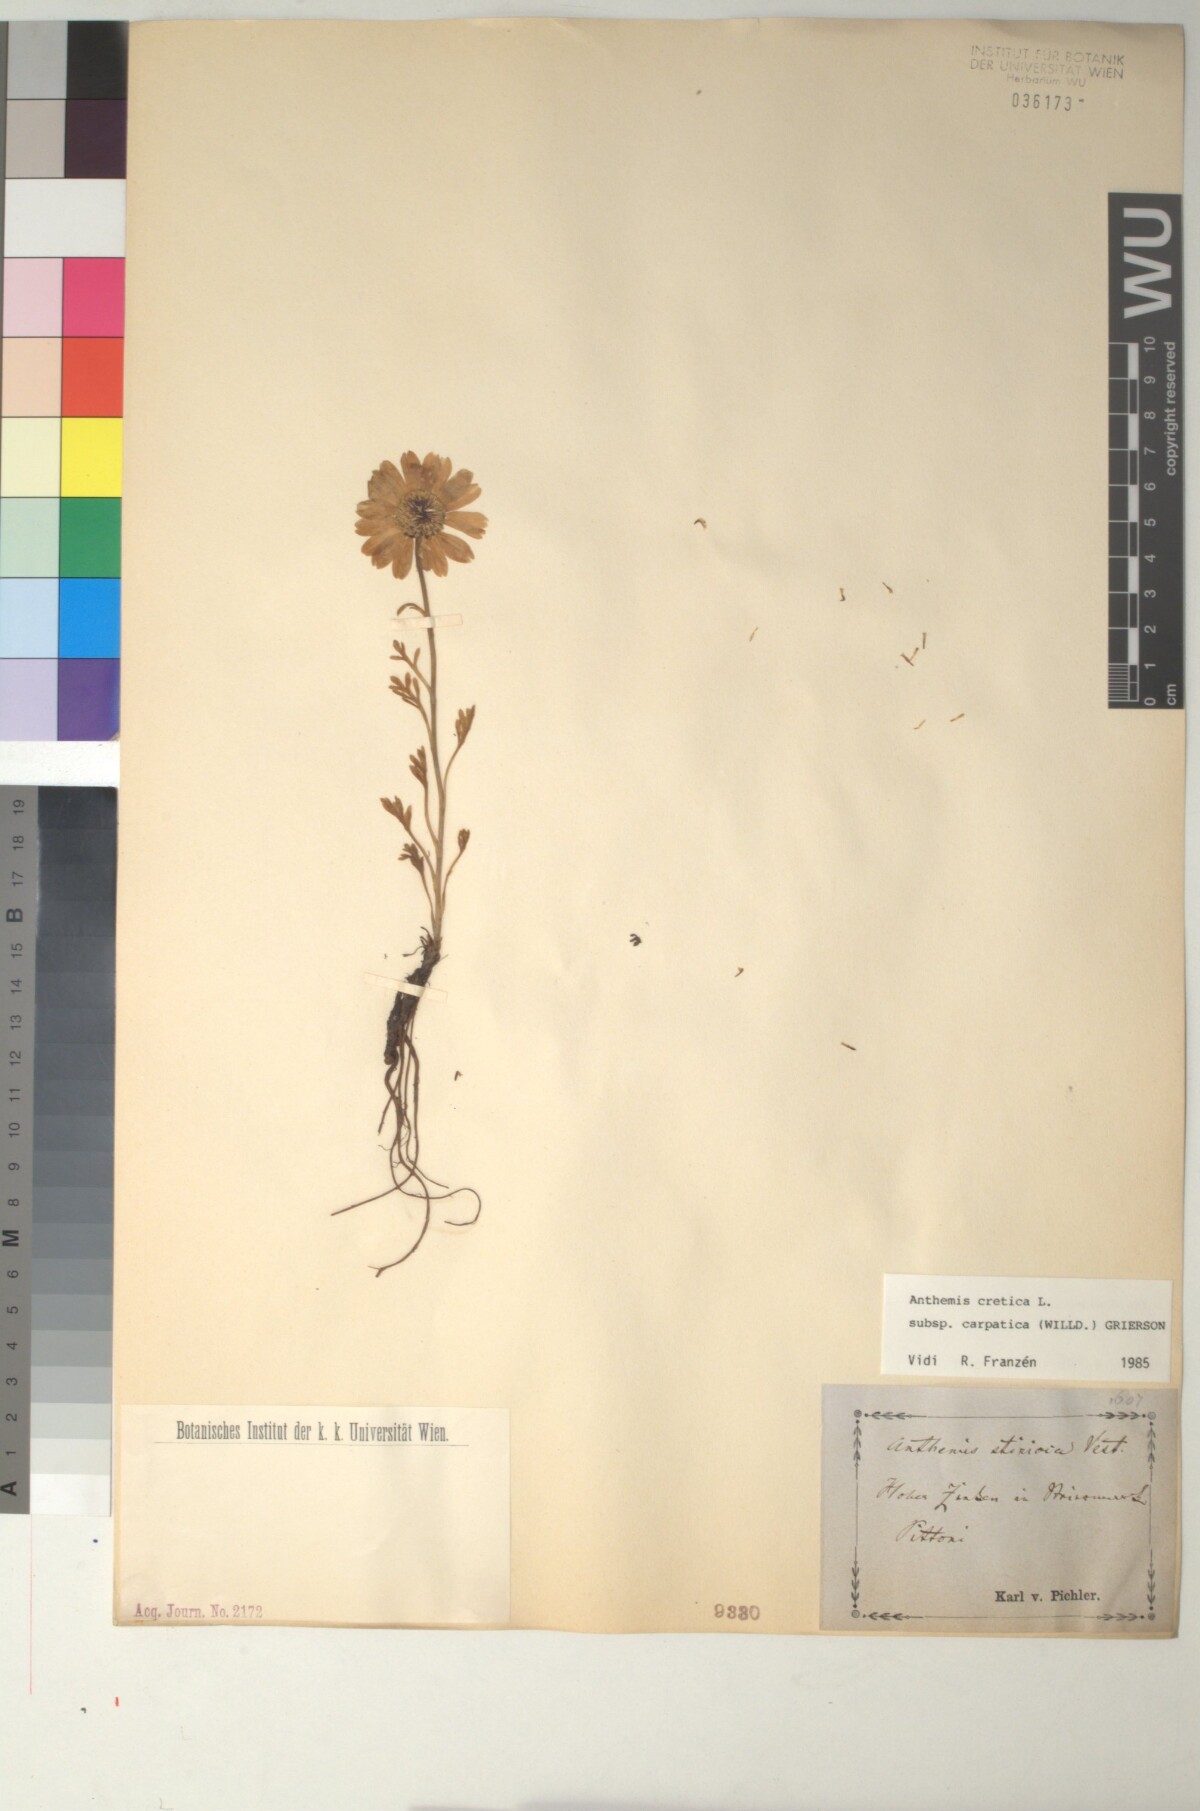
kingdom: Plantae
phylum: Tracheophyta
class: Magnoliopsida
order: Asterales
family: Asteraceae
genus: Anthemis
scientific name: Anthemis cretica
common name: Mountain dog-daisy
